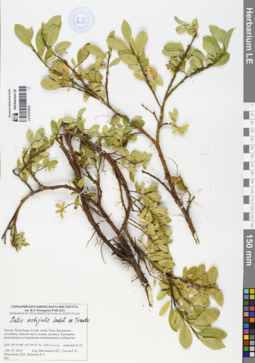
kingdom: Plantae
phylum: Tracheophyta
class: Magnoliopsida
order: Malpighiales
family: Salicaceae
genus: Salix
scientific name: Salix rectijulis
